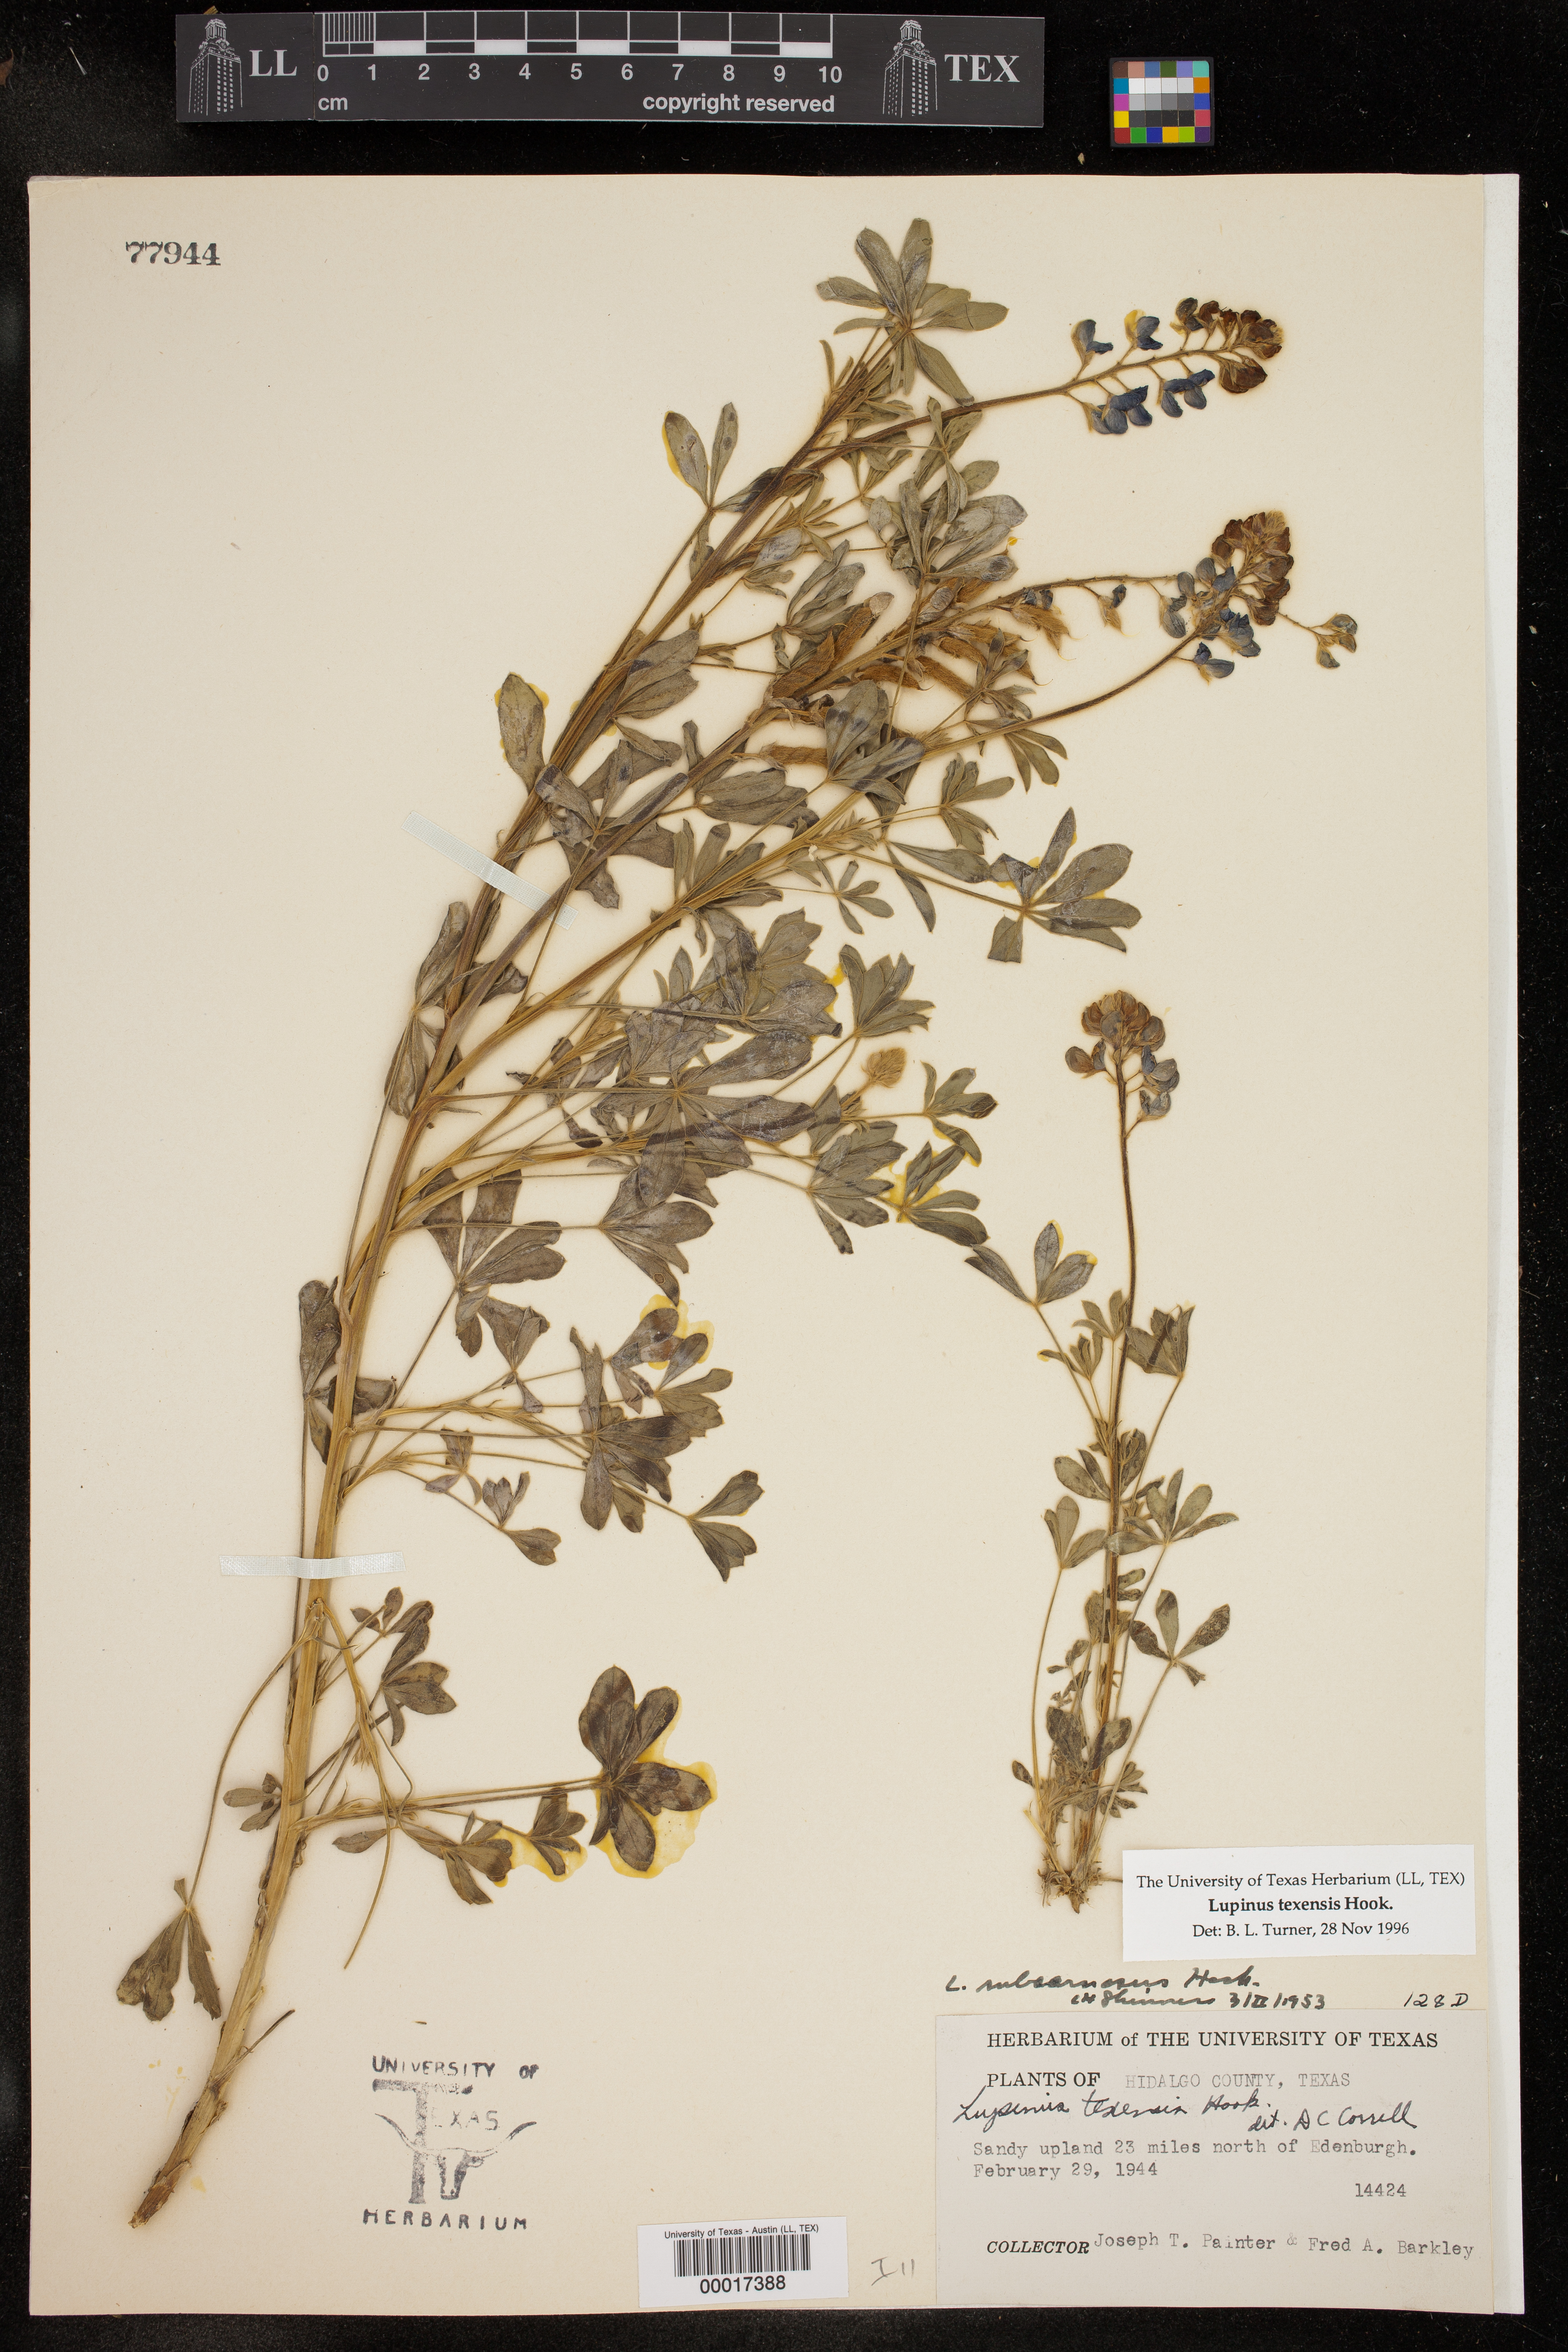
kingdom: Plantae
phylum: Tracheophyta
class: Magnoliopsida
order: Fabales
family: Fabaceae
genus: Lupinus
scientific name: Lupinus texensis
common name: Texas bluebonnet
